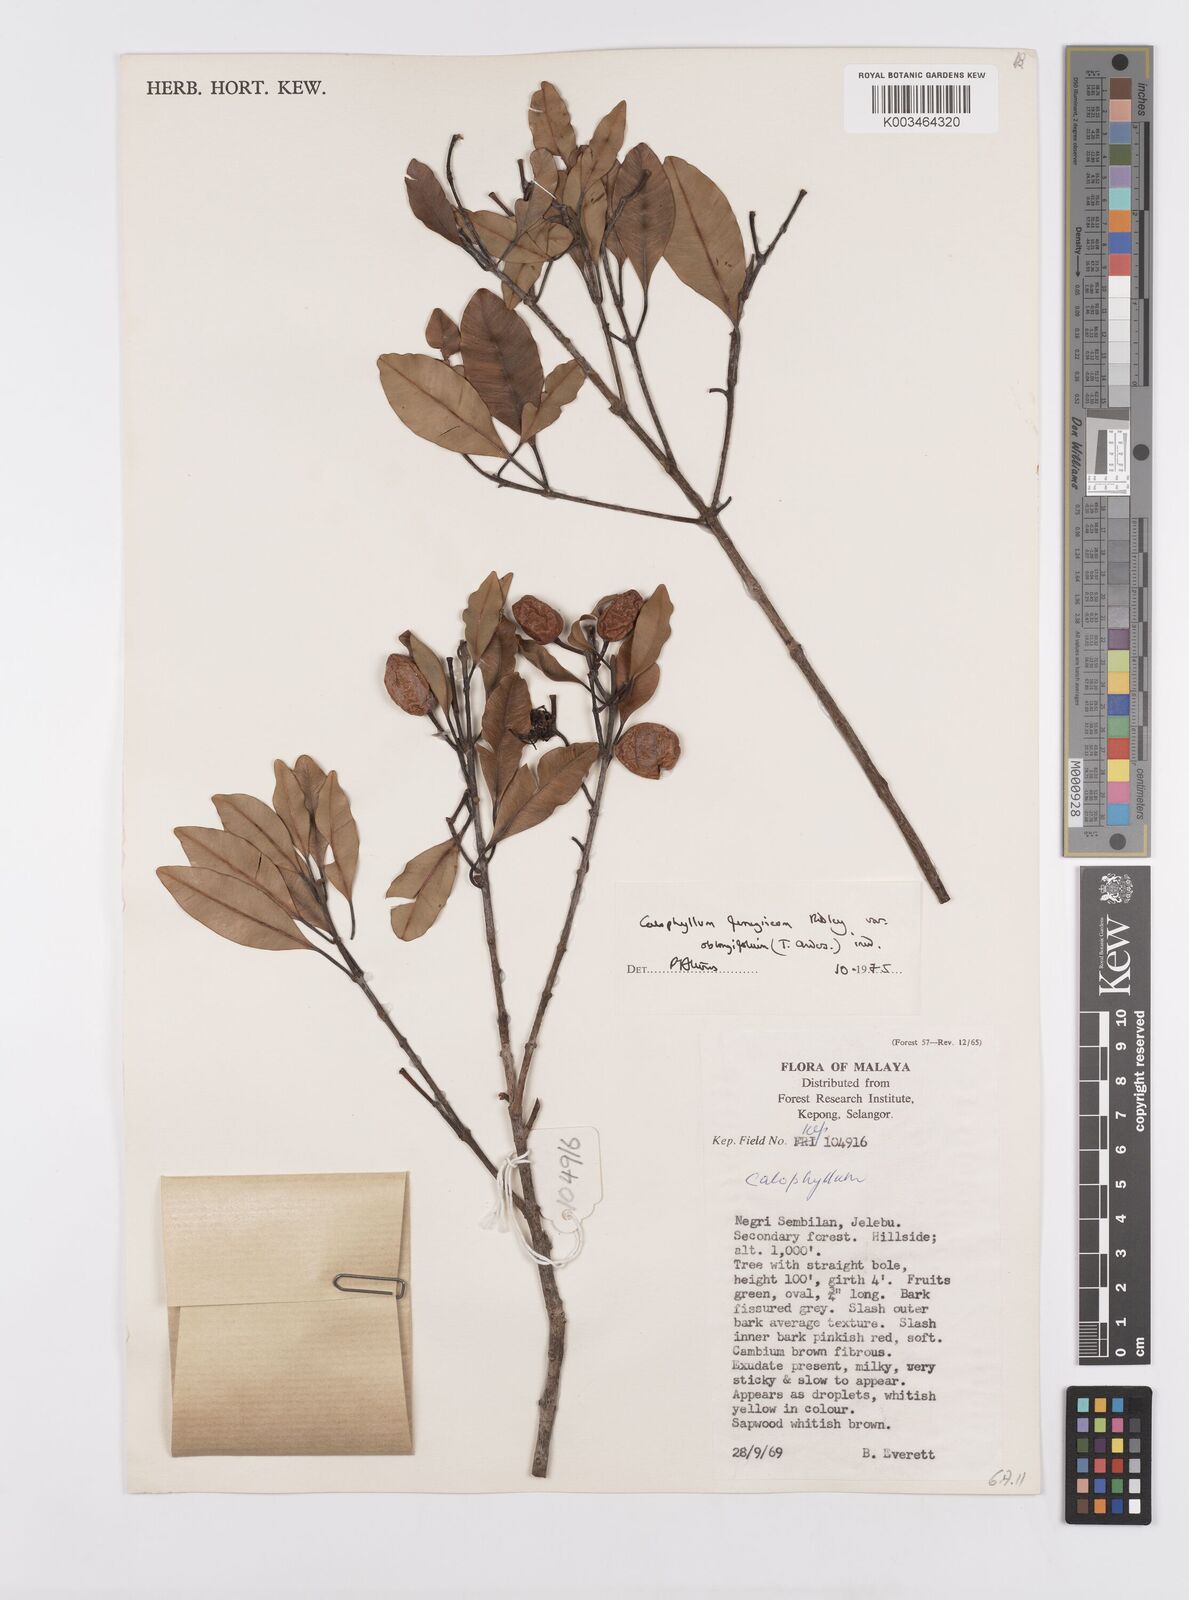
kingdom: Plantae
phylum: Tracheophyta
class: Magnoliopsida
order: Malpighiales
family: Calophyllaceae
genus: Calophyllum
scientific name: Calophyllum ferrugineum
